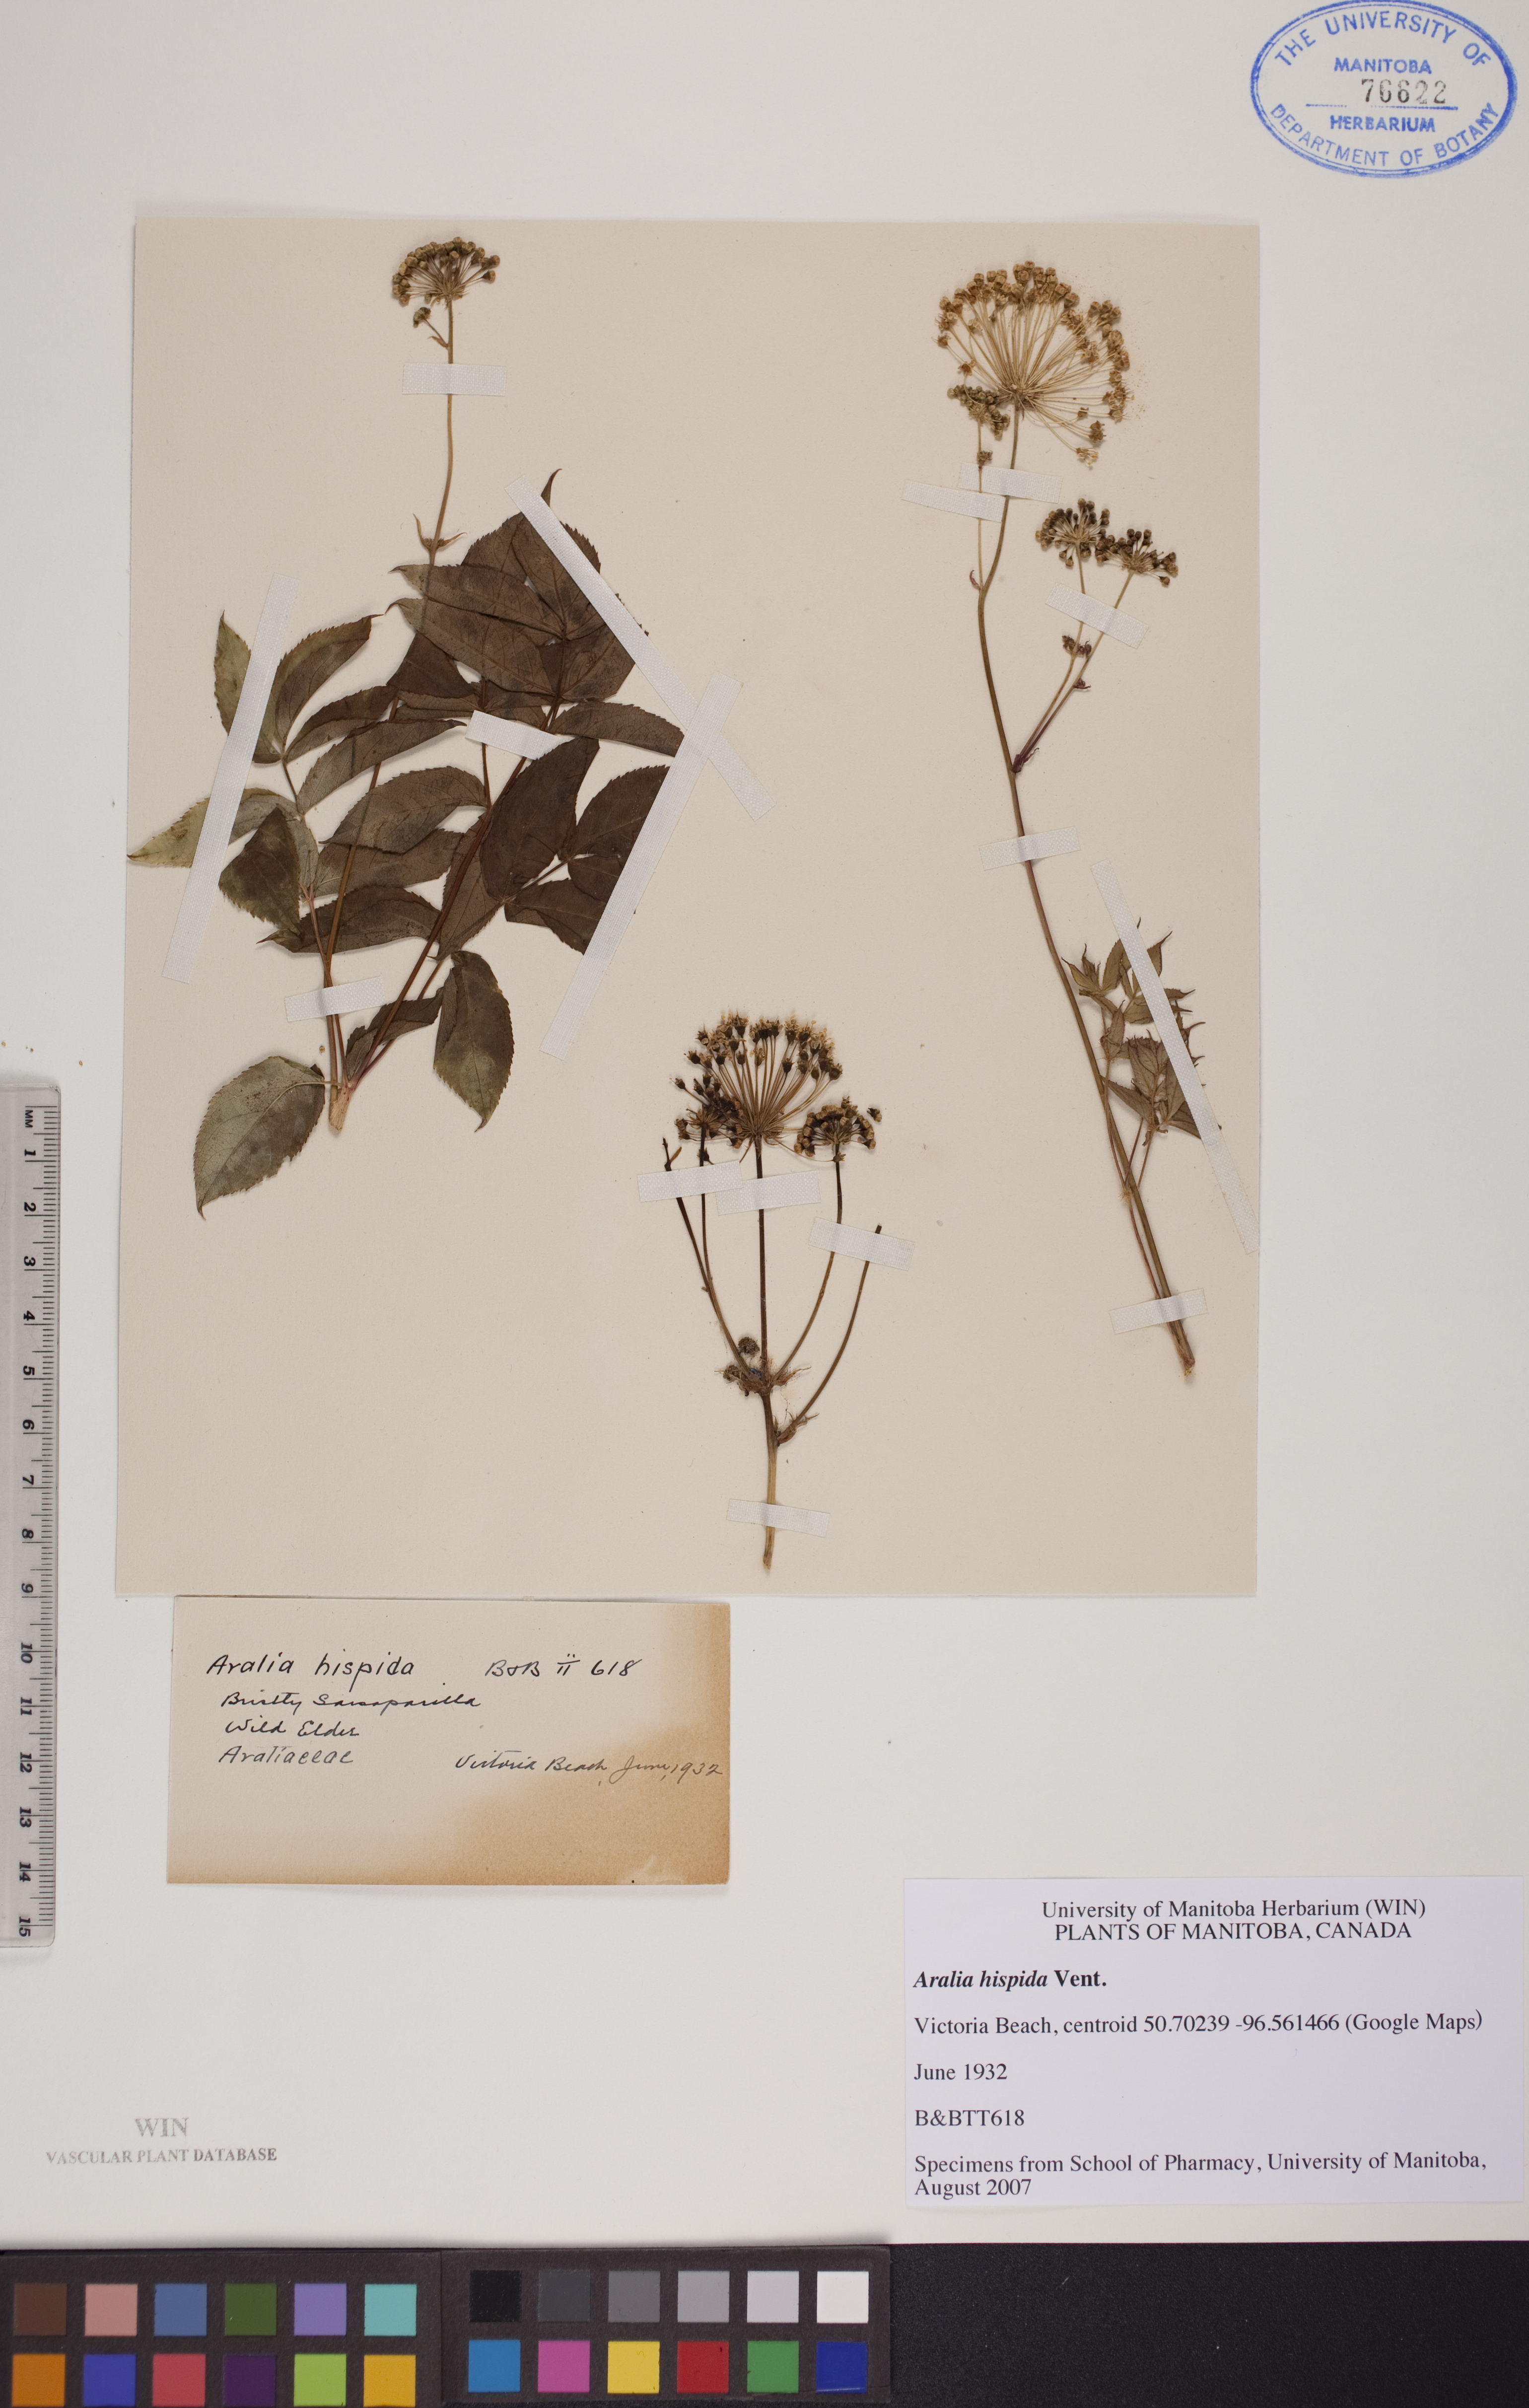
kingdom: Plantae
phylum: Tracheophyta
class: Magnoliopsida
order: Apiales
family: Araliaceae
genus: Aralia
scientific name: Aralia hispida
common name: Bristly sarsaparilla
